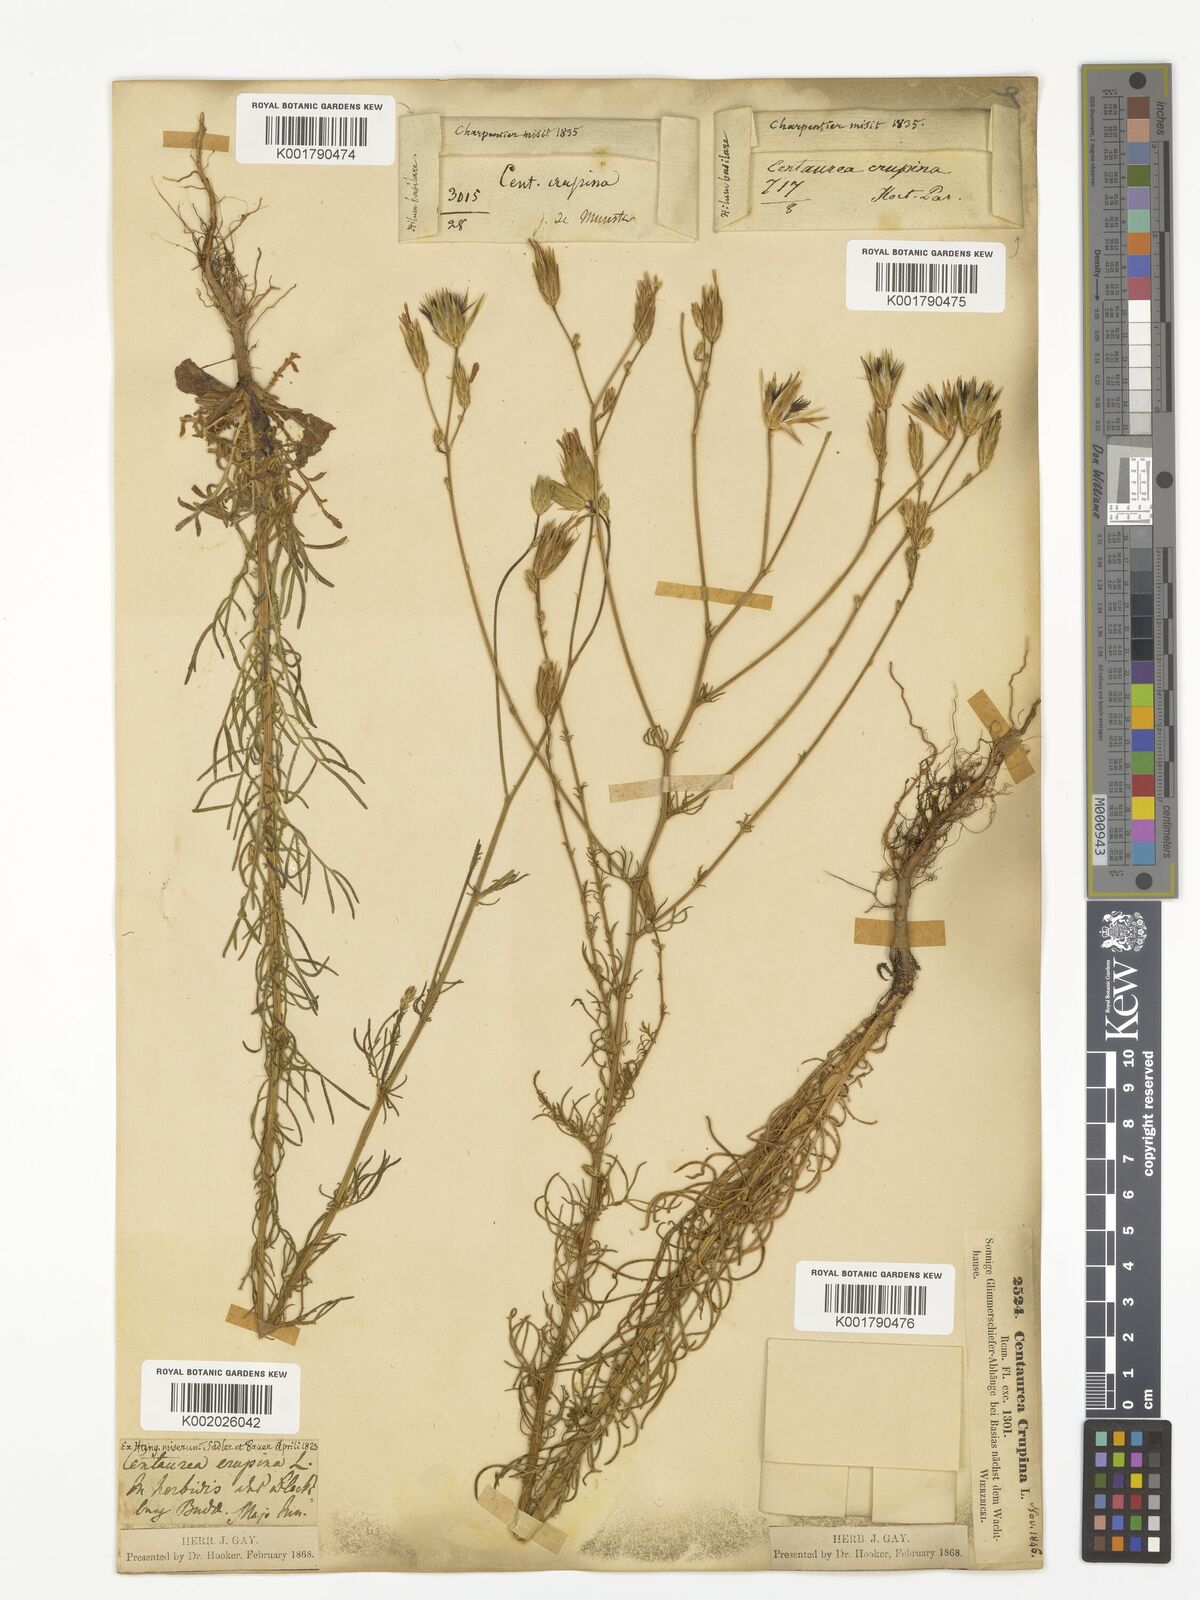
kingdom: Plantae
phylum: Tracheophyta
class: Magnoliopsida
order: Asterales
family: Asteraceae
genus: Crupina
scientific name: Crupina crupinastrum
